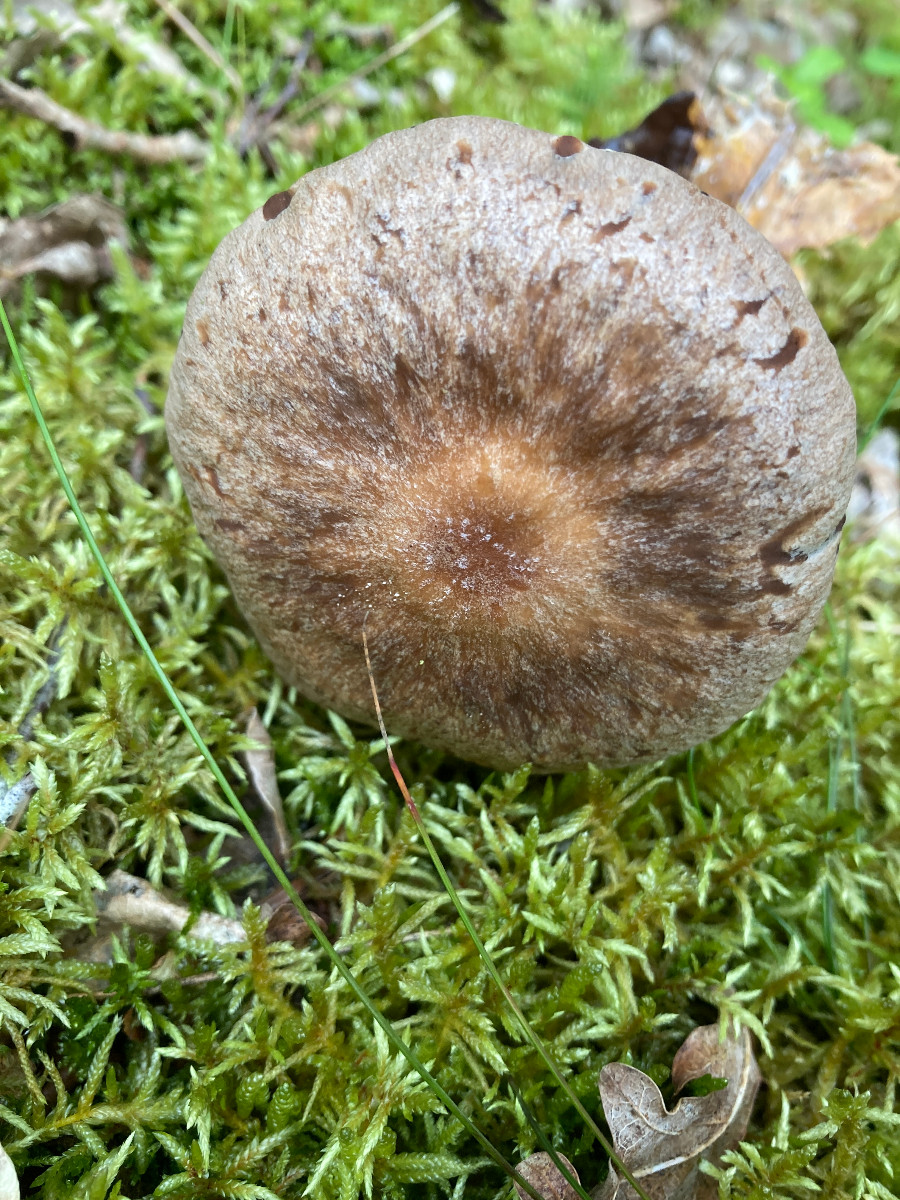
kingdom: Fungi
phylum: Basidiomycota
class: Agaricomycetes
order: Agaricales
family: Omphalotaceae
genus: Collybiopsis
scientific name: Collybiopsis peronata
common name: bestøvlet fladhat
